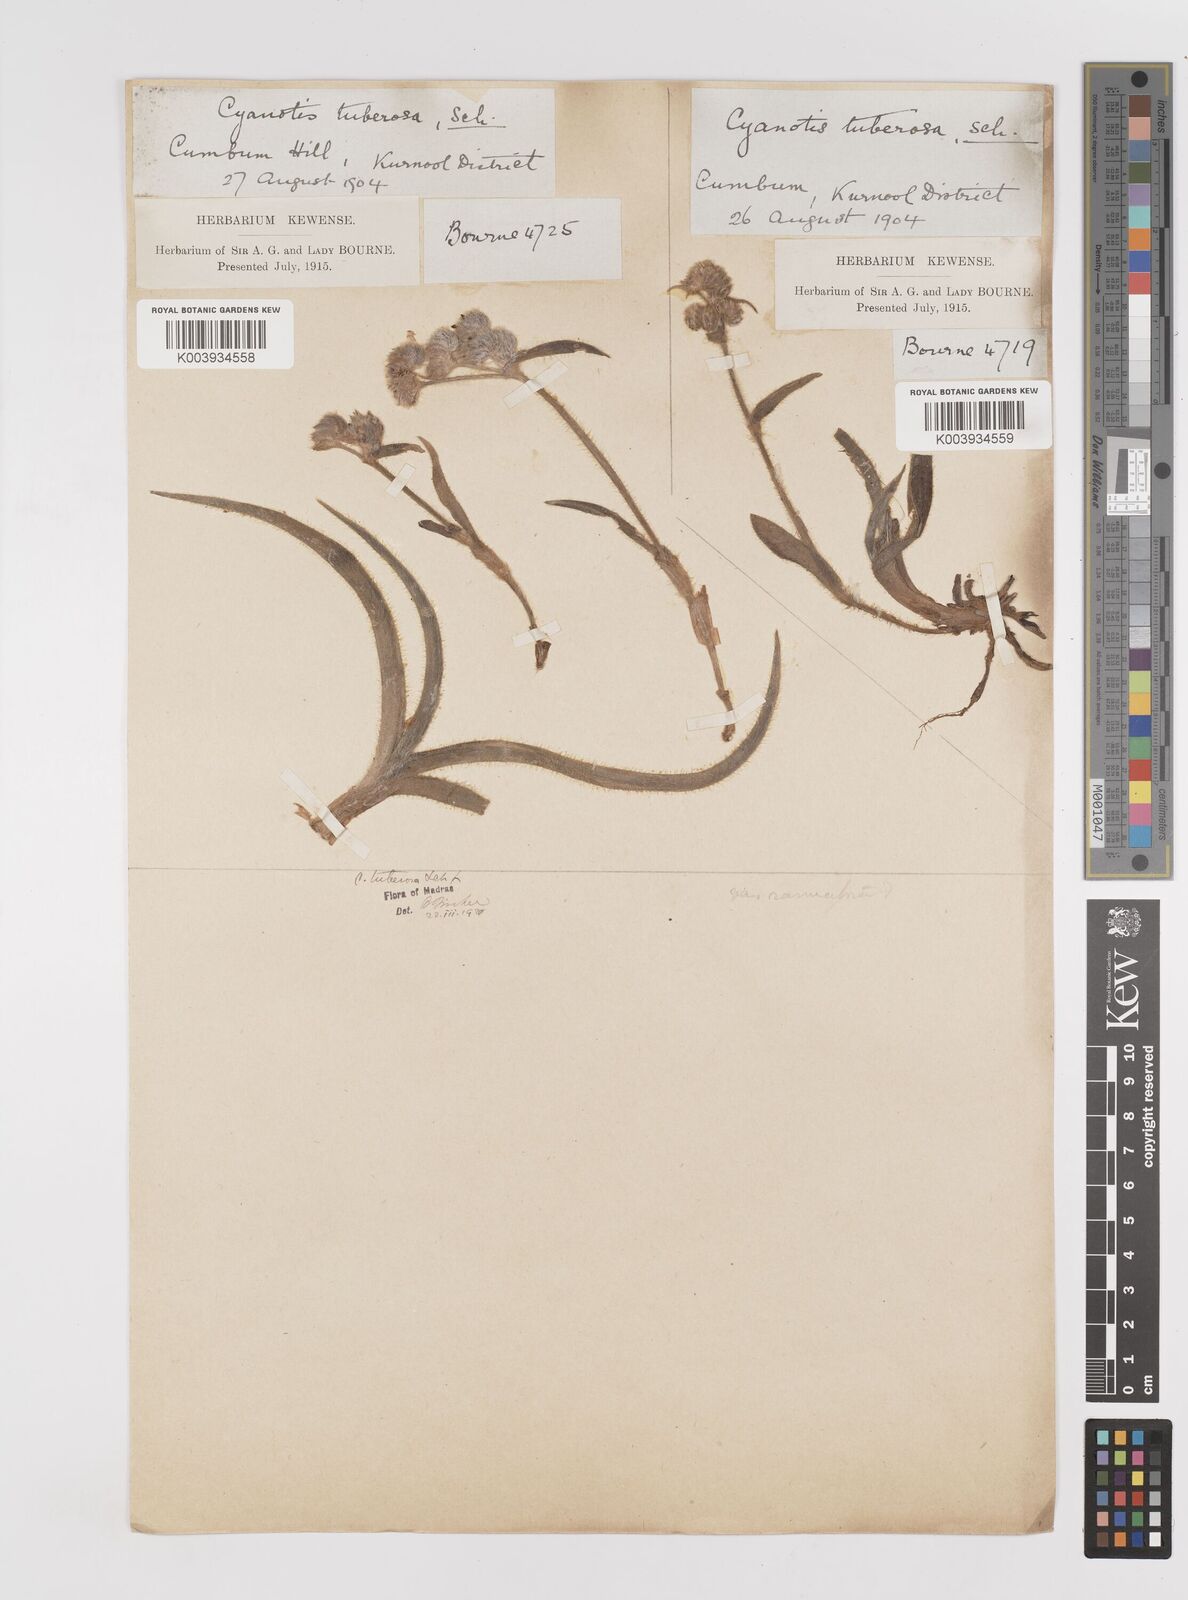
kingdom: Plantae
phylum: Tracheophyta
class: Liliopsida
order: Commelinales
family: Commelinaceae
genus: Cyanotis
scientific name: Cyanotis tuberosa
